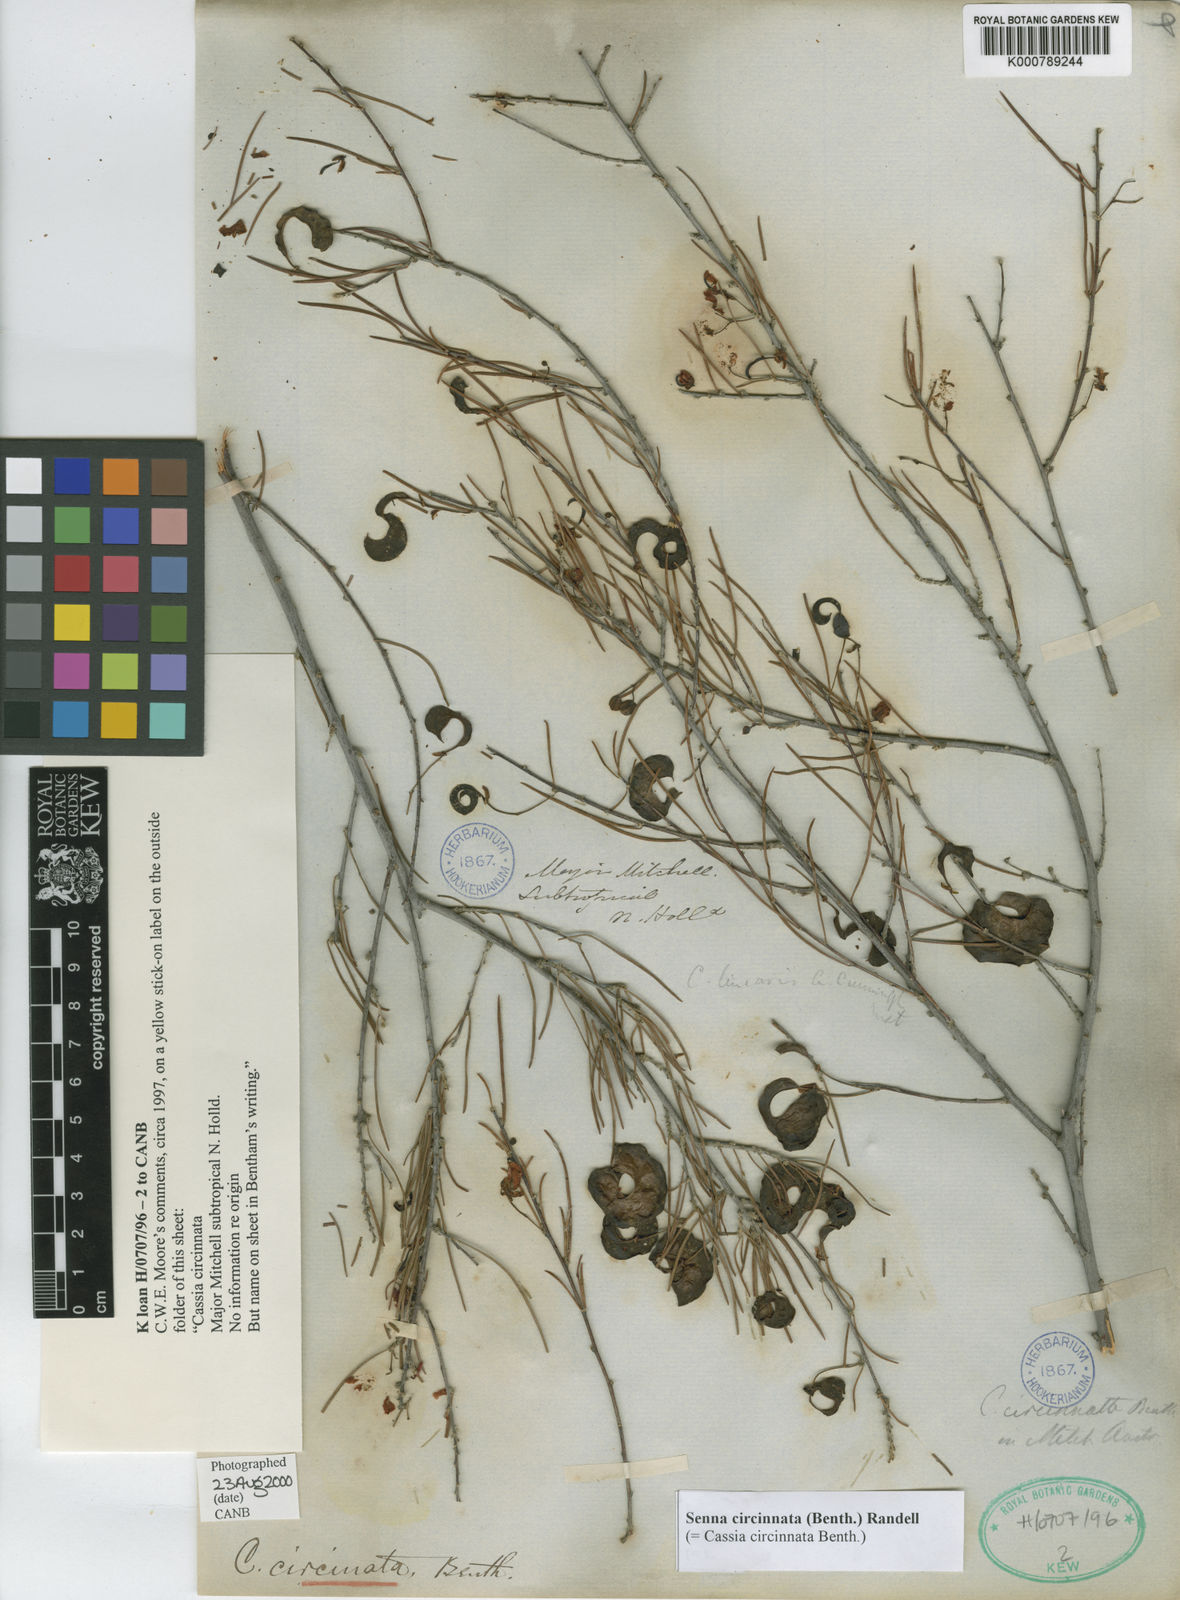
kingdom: Plantae
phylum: Tracheophyta
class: Magnoliopsida
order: Fabales
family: Fabaceae
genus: Senna
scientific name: Senna circinnata
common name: Coiled cassia
